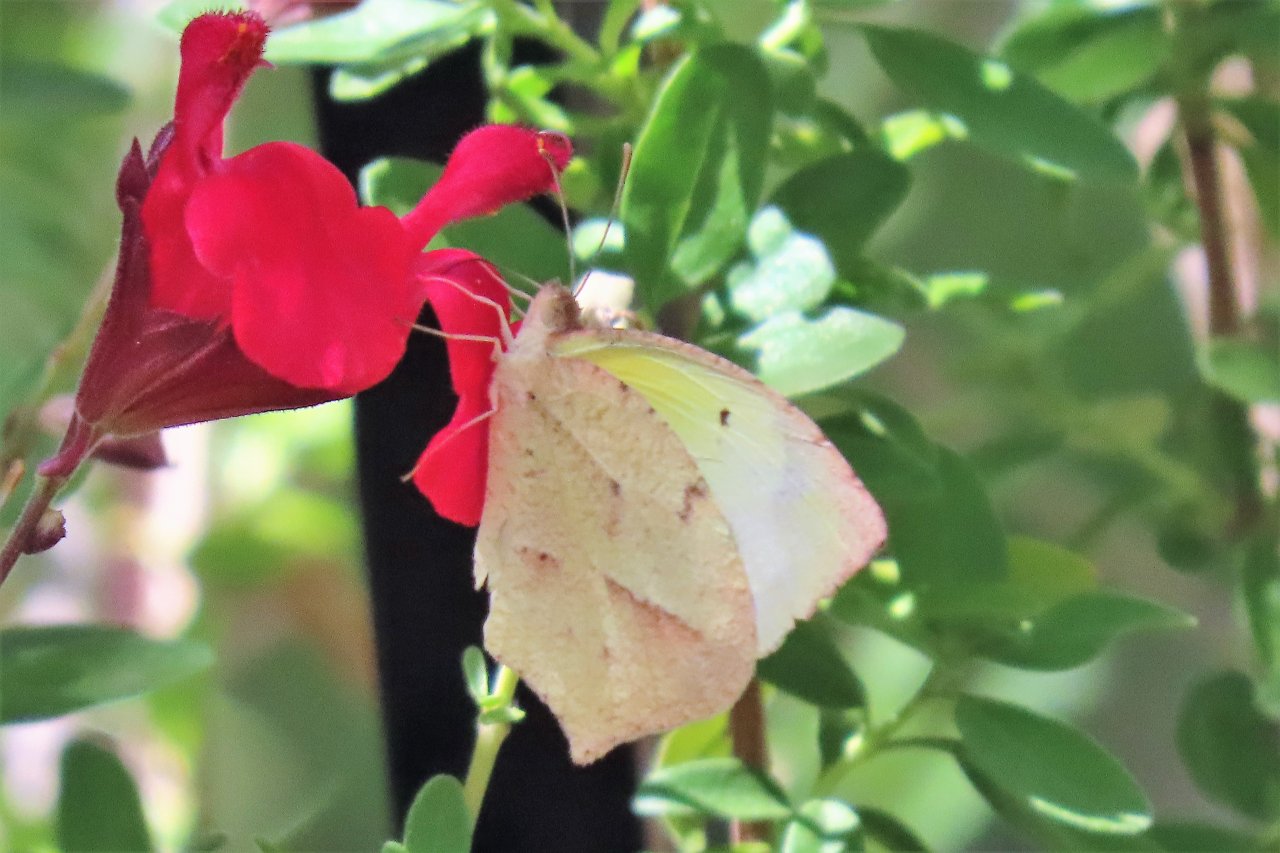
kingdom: Animalia
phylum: Arthropoda
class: Insecta
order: Lepidoptera
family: Pieridae
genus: Eurema
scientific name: Eurema mexicana
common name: Mexican Yellow
